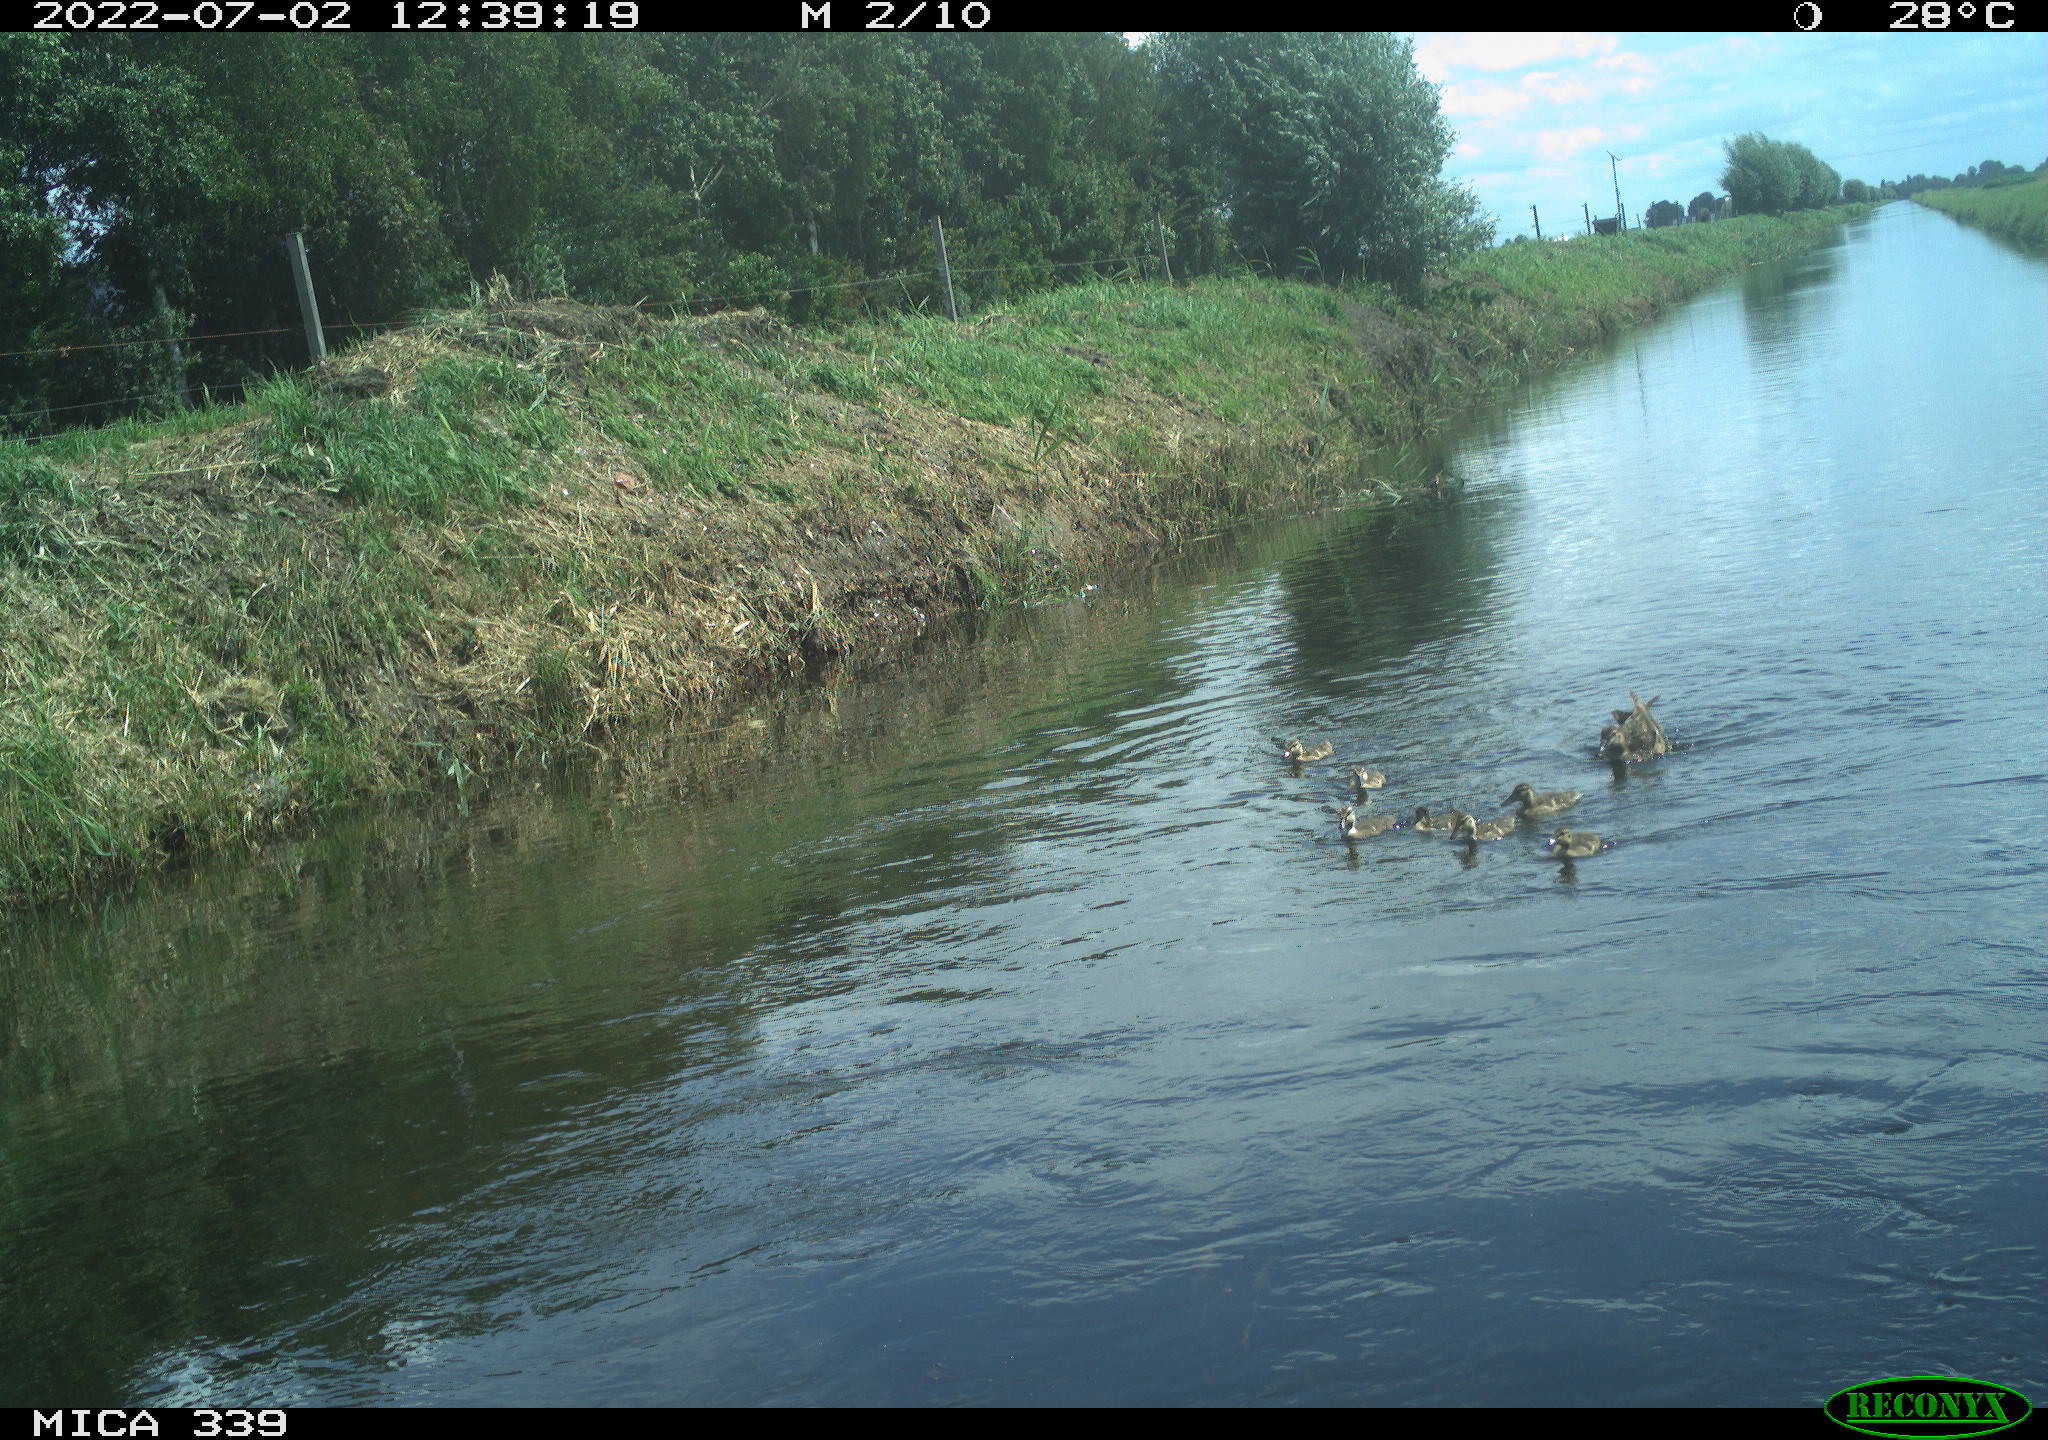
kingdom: Animalia
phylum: Chordata
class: Aves
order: Anseriformes
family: Anatidae
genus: Anas
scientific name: Anas platyrhynchos
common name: Mallard
